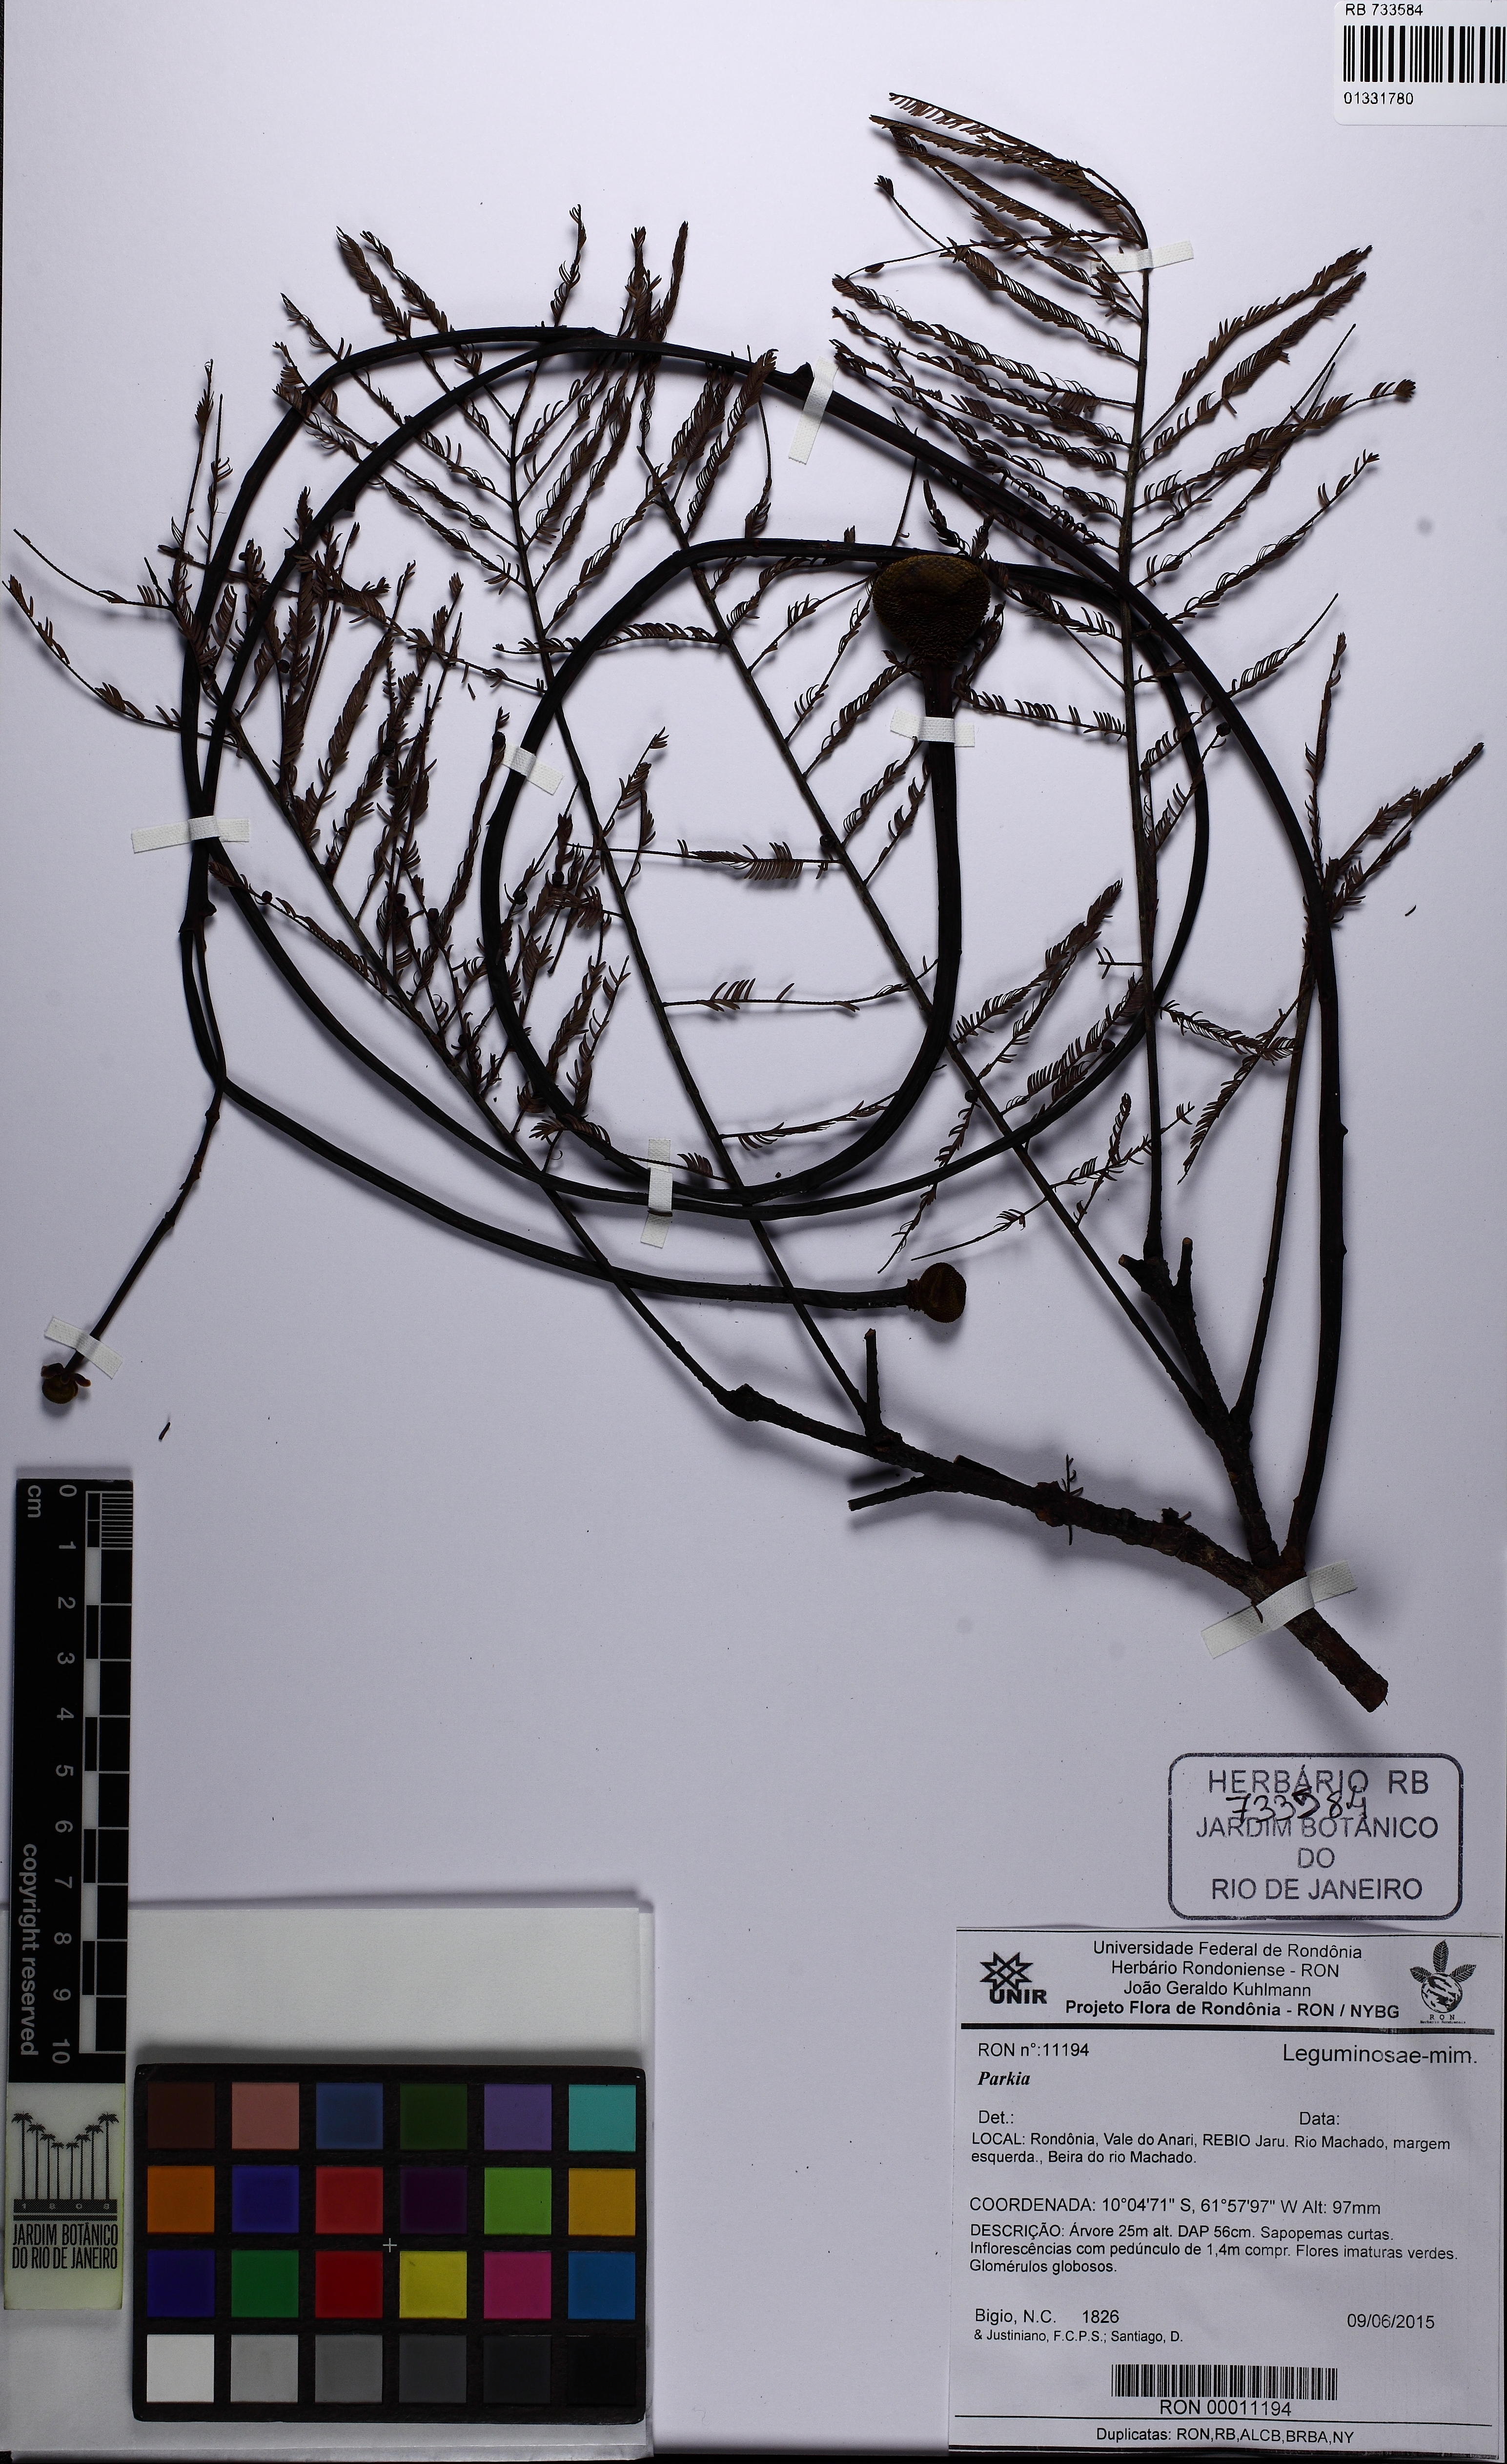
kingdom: Plantae
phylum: Tracheophyta
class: Magnoliopsida
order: Fabales
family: Fabaceae
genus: Parkia
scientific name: Parkia
